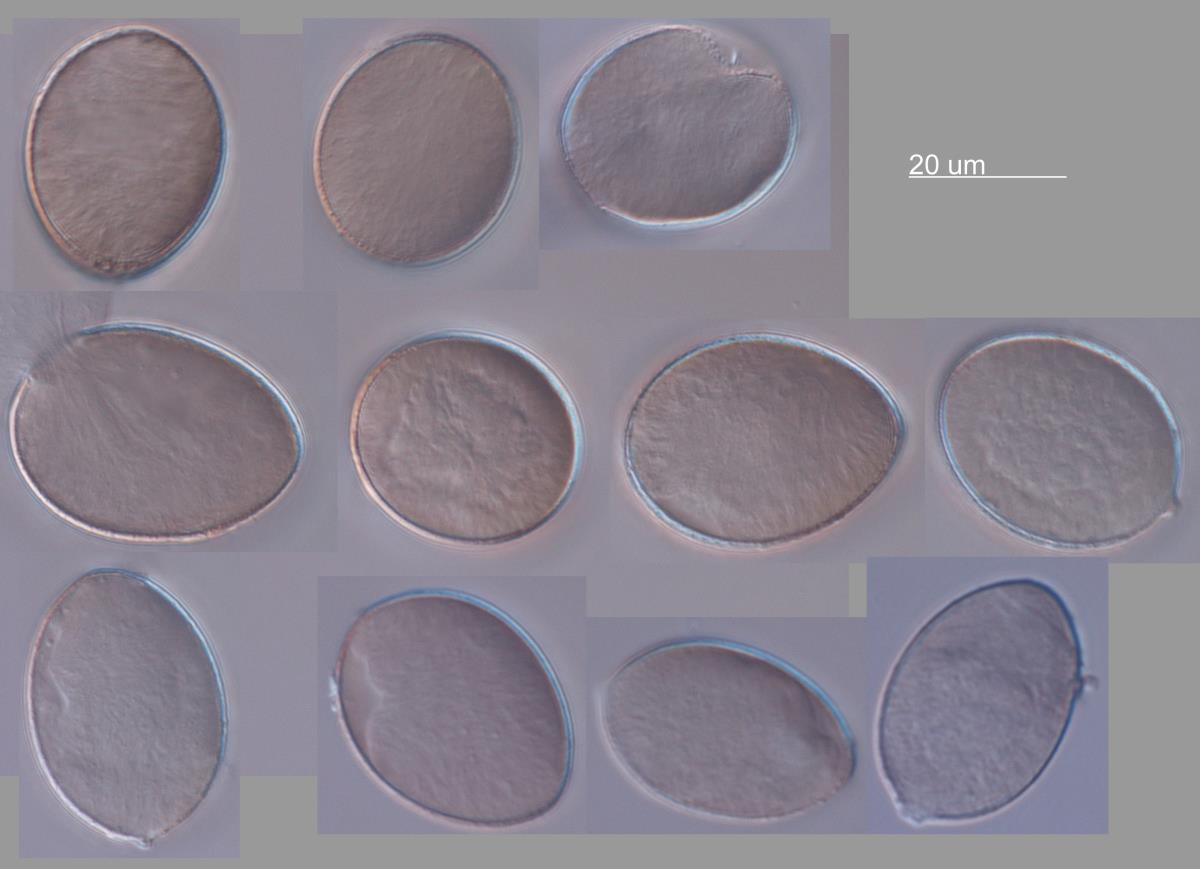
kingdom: Chromista
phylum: Oomycota
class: Peronosporea
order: Peronosporales
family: Peronosporaceae
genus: Peronospora
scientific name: Peronospora farinosa
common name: Beet downy mildew
